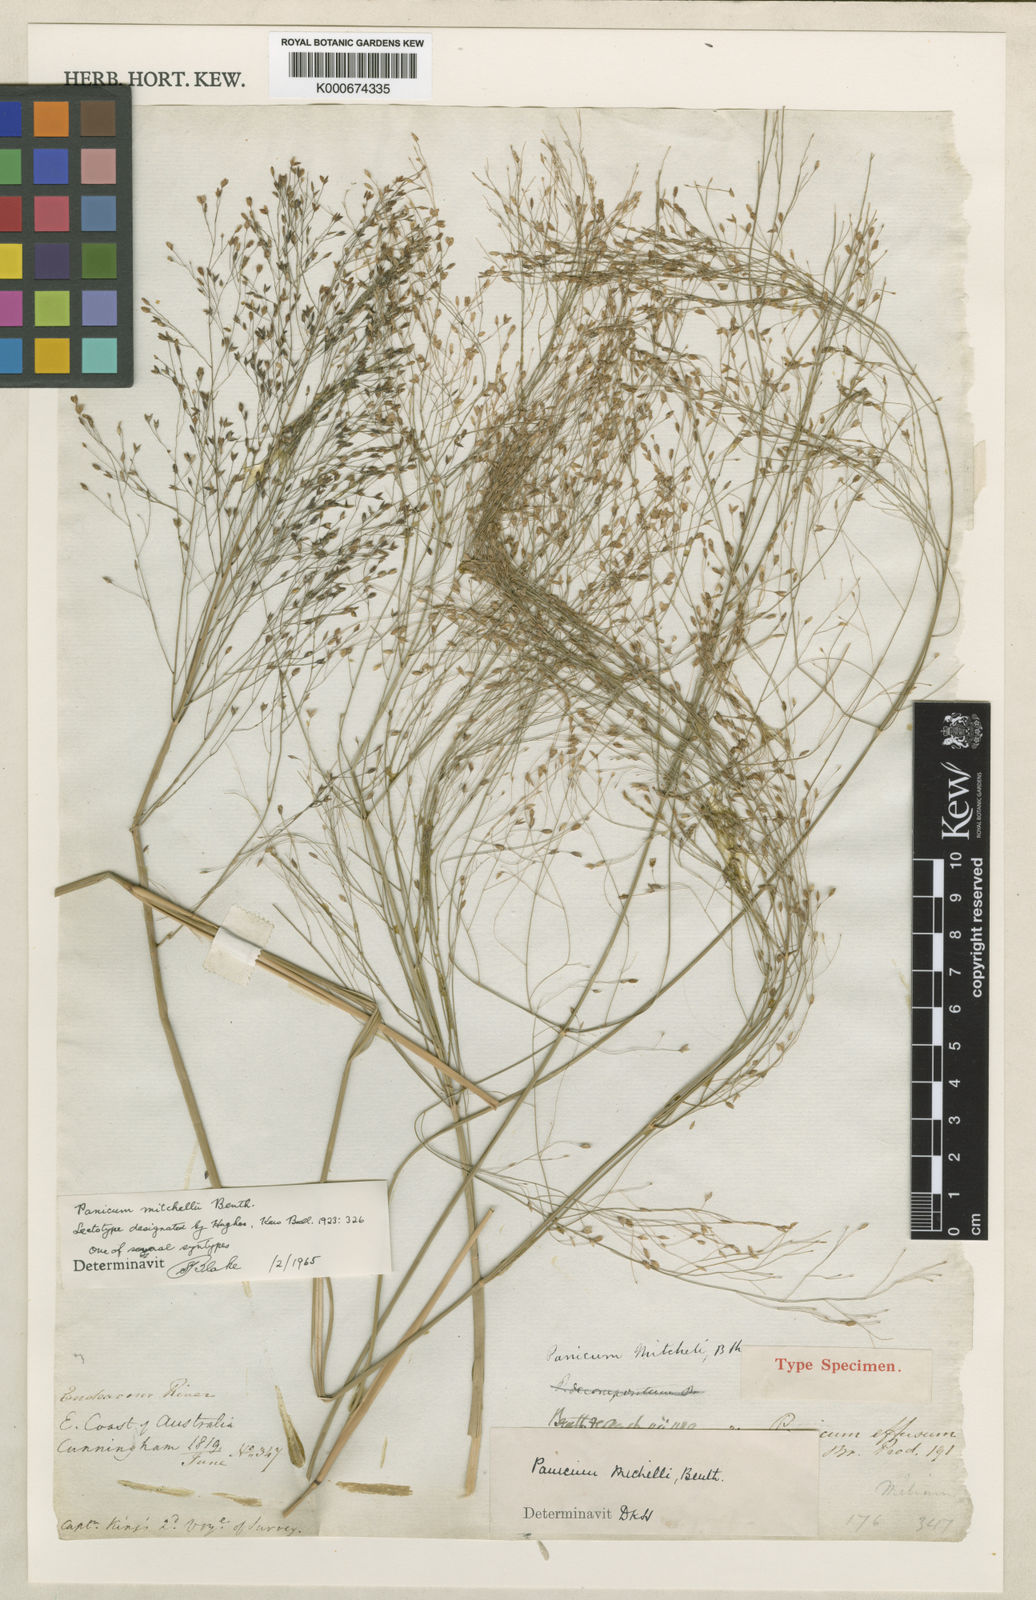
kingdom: Plantae
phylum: Tracheophyta
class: Liliopsida
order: Poales
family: Poaceae
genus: Panicum
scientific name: Panicum mitchellii
